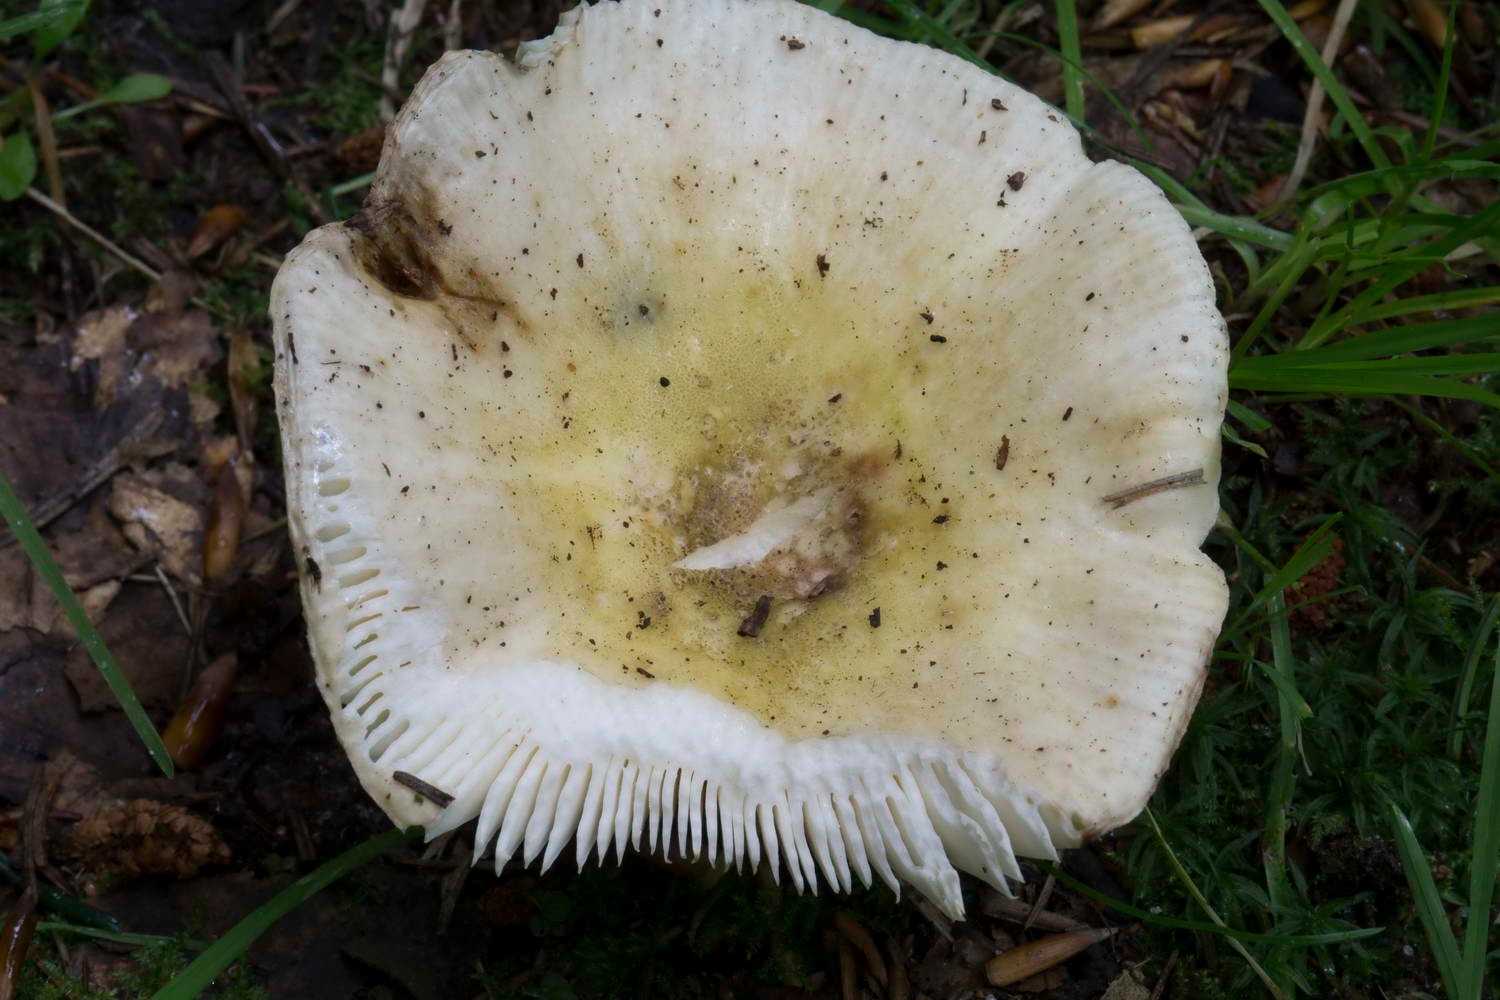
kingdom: Fungi
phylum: Basidiomycota
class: Agaricomycetes
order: Russulales
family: Russulaceae
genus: Russula
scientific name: Russula violeipes
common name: ferskengul skørhat
